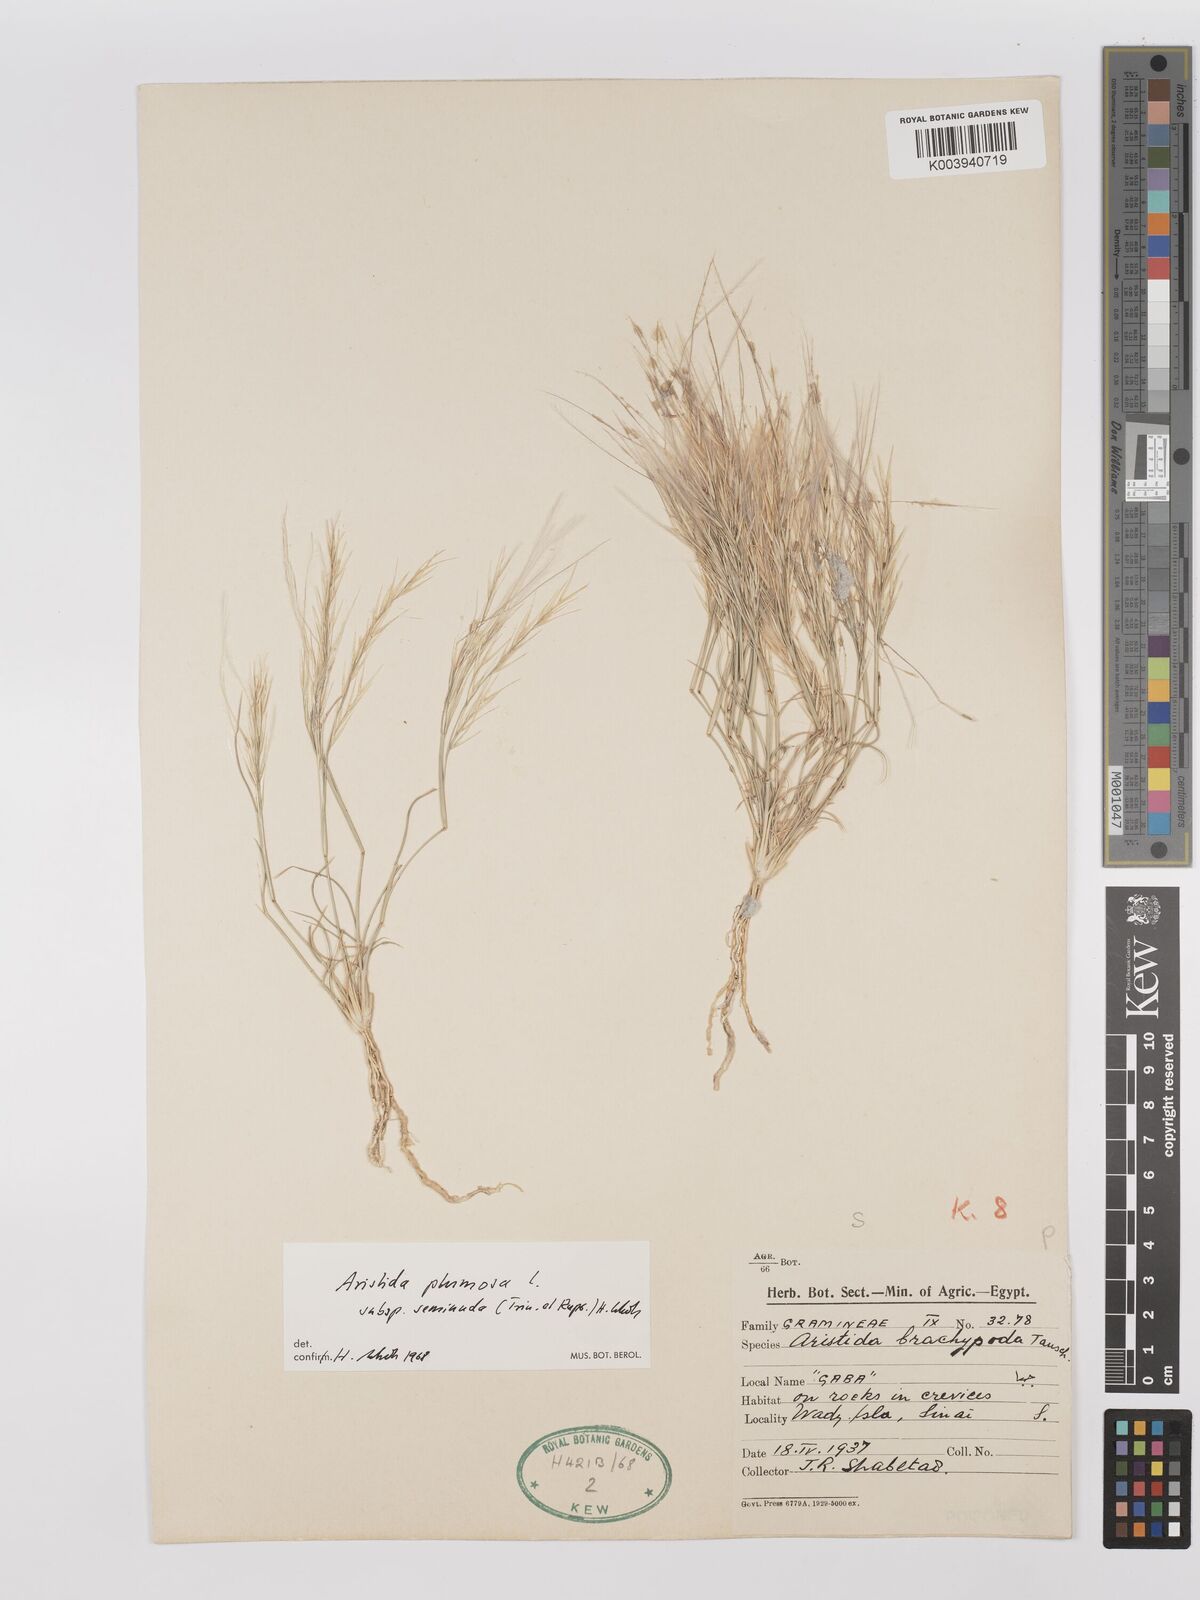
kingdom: Plantae
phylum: Tracheophyta
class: Liliopsida
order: Poales
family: Poaceae
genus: Stipagrostis
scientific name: Stipagrostis plumosa
